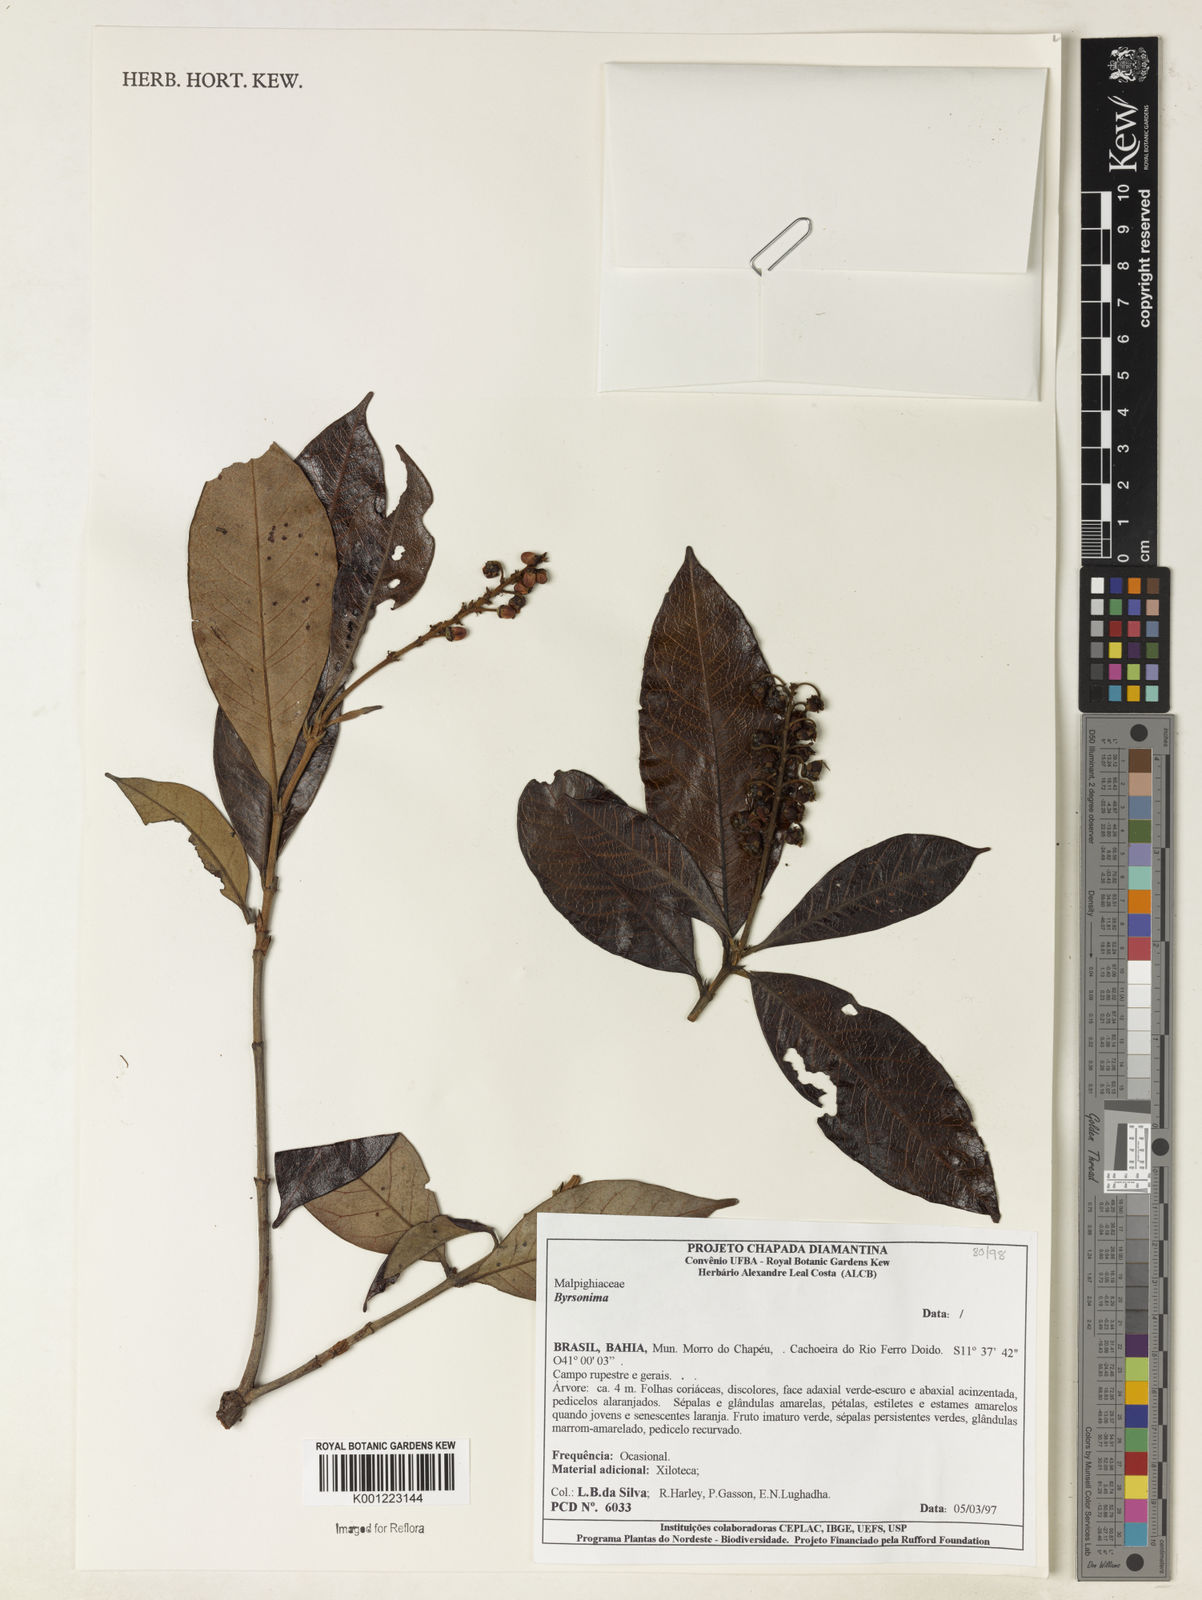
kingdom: Plantae
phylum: Tracheophyta
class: Magnoliopsida
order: Malpighiales
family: Malpighiaceae
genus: Byrsonima
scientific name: Byrsonima
